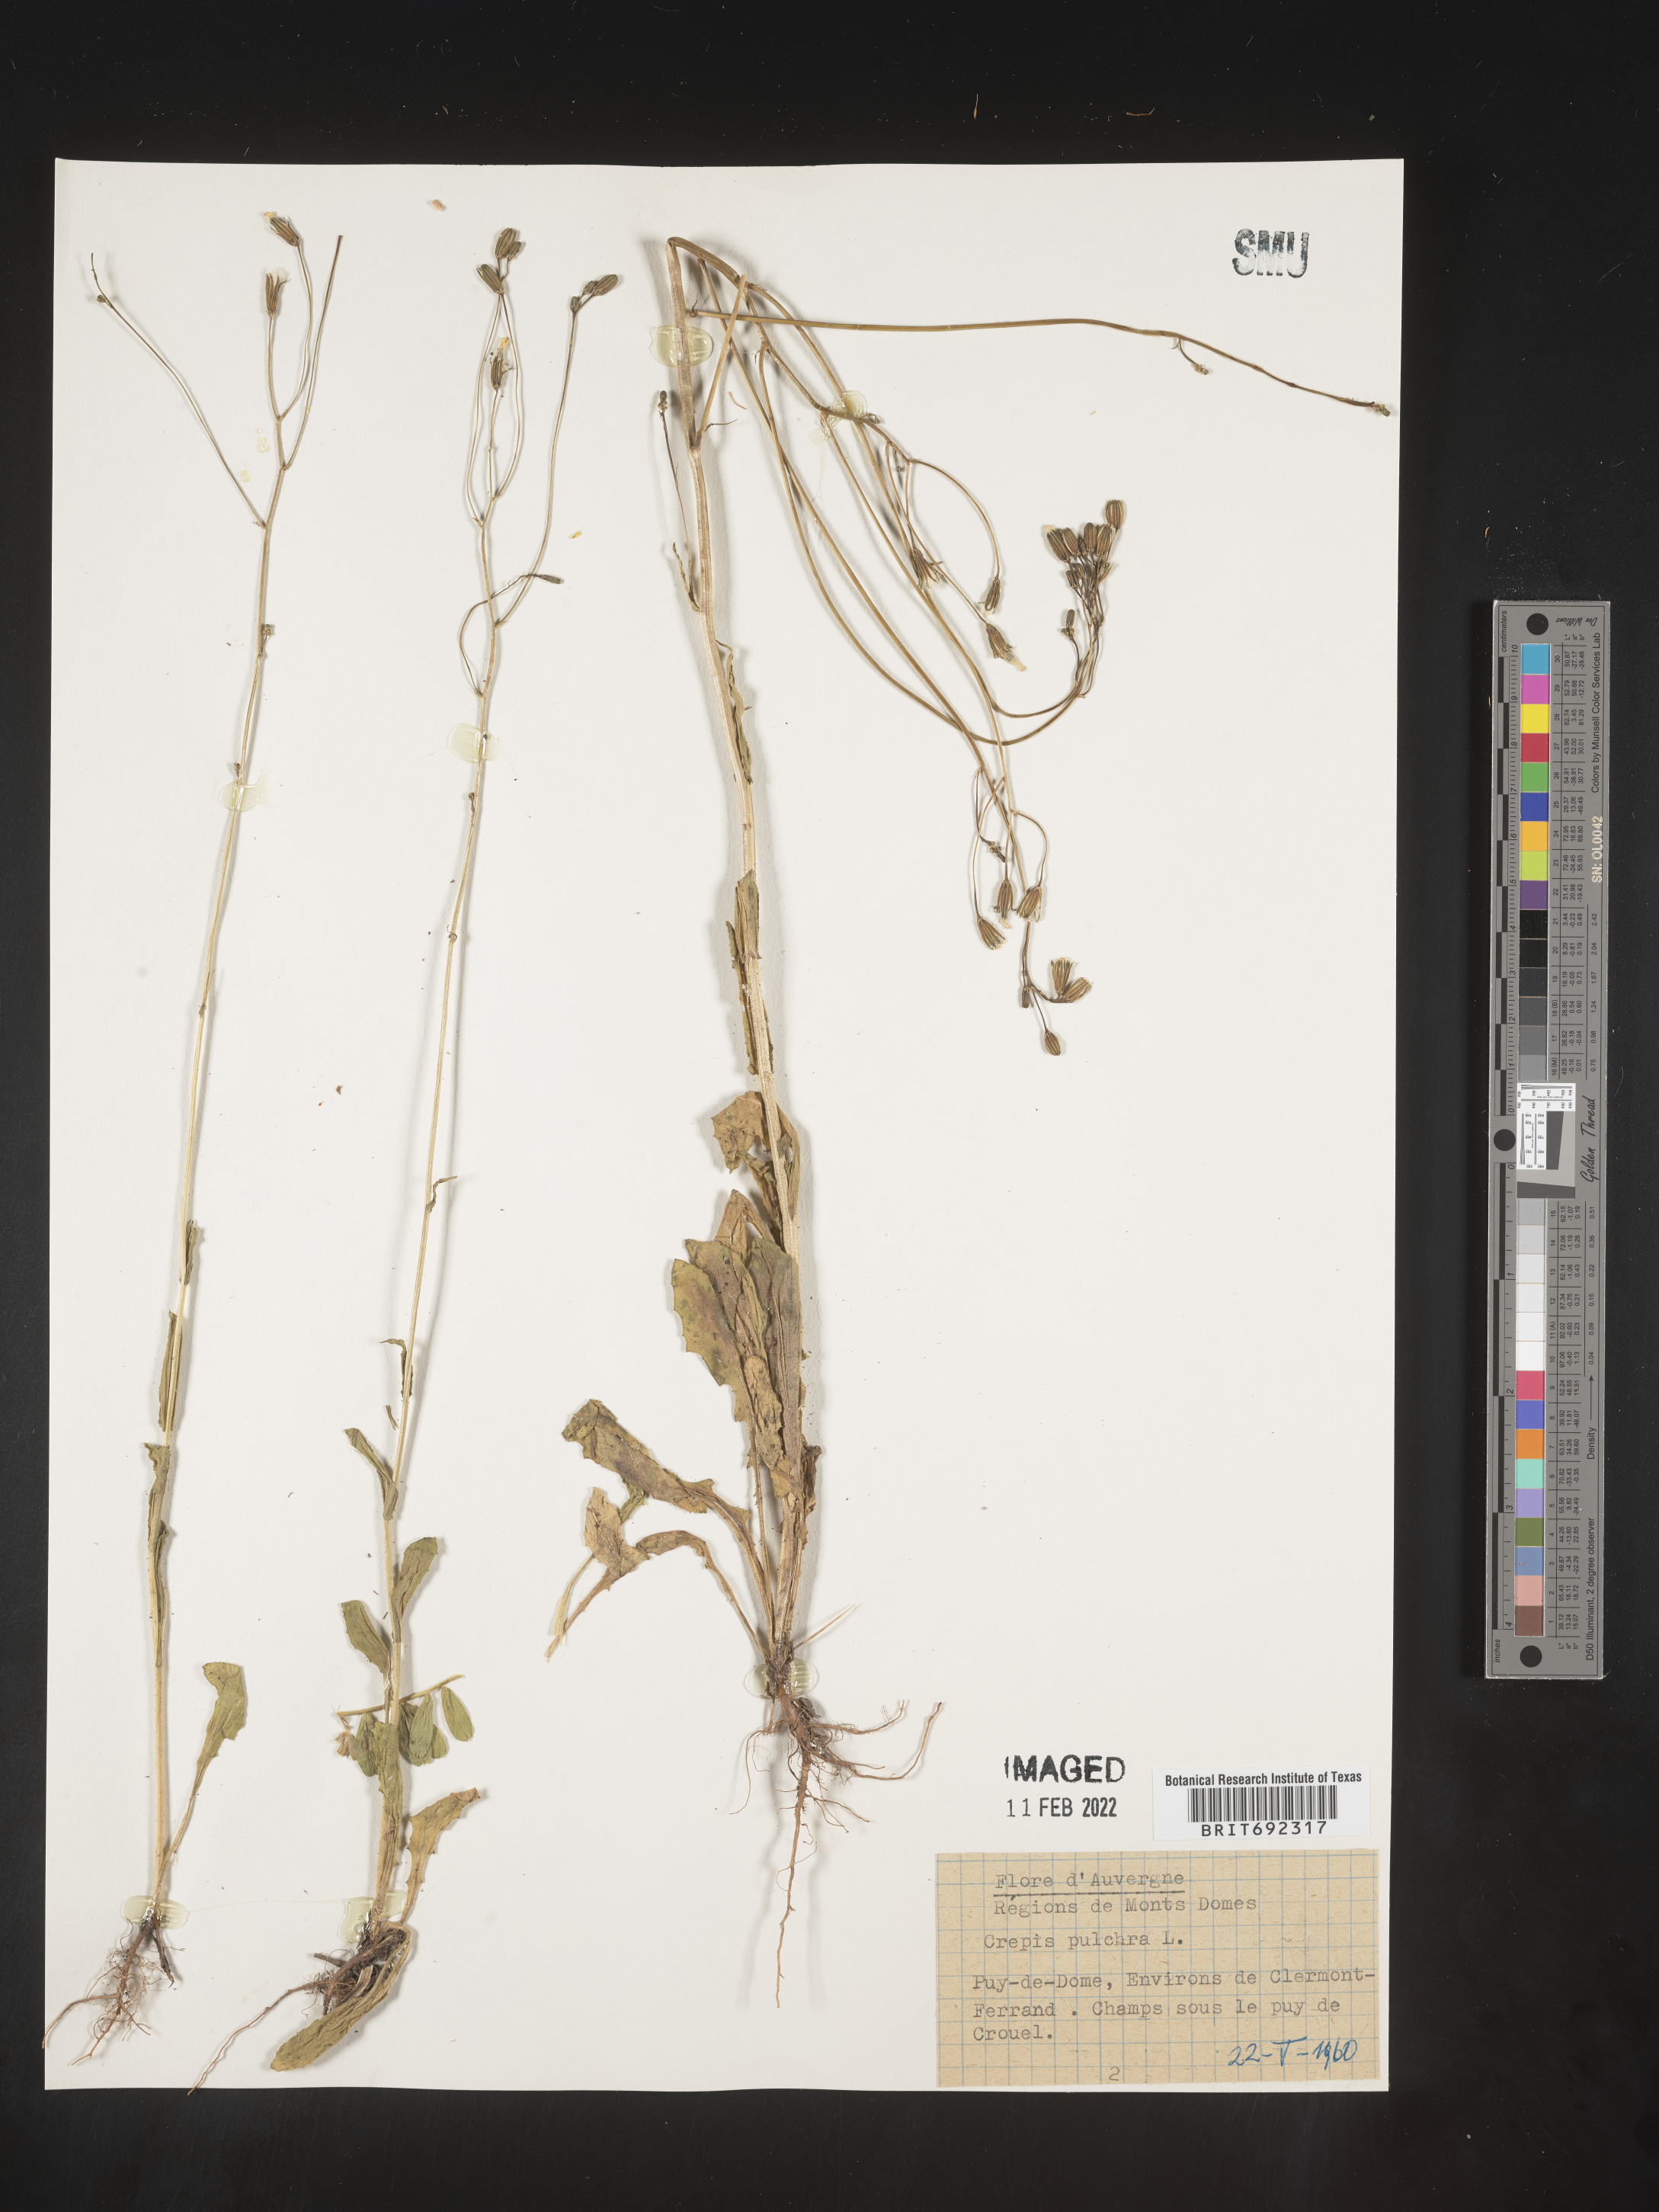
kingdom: Plantae
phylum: Tracheophyta
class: Magnoliopsida
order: Asterales
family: Asteraceae
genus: Crepis
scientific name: Crepis
